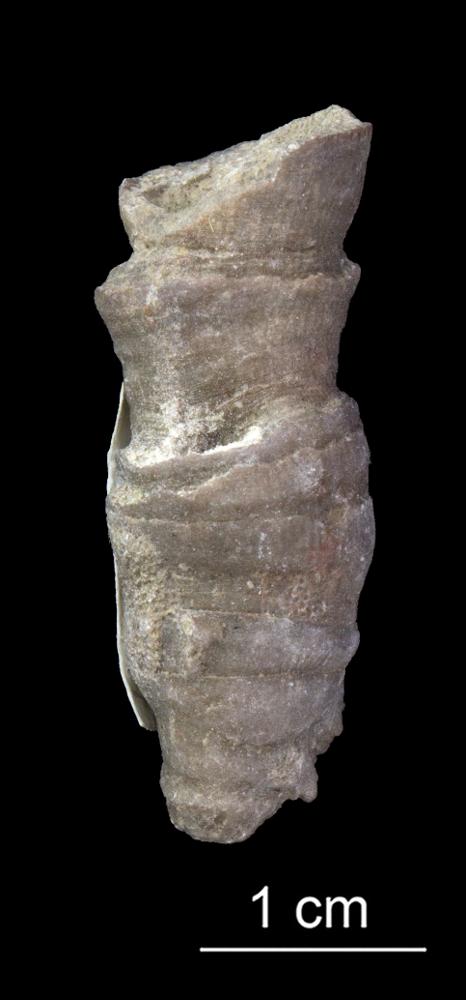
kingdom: Animalia
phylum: Cnidaria
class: Anthozoa
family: Cyathophyllidae
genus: Cystiphyllum
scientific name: Cystiphyllum
